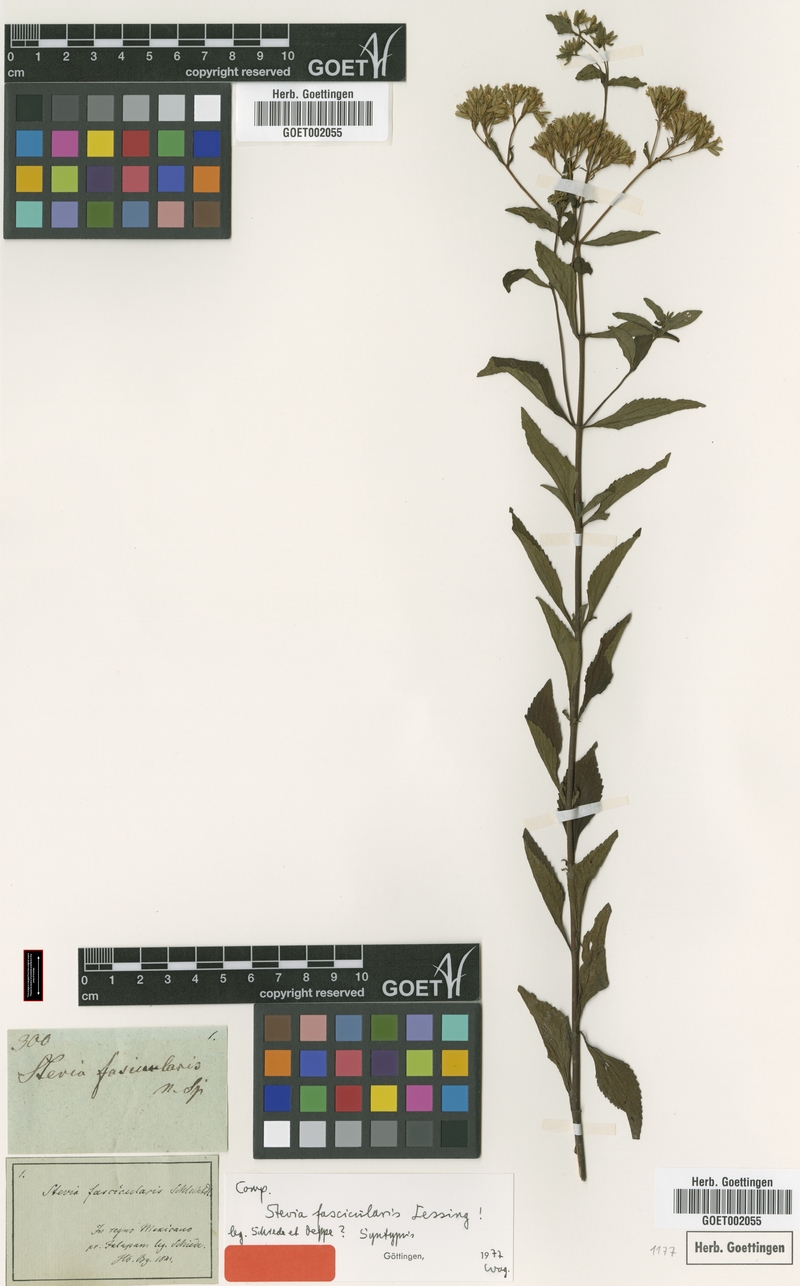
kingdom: Plantae
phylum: Tracheophyta
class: Magnoliopsida
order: Asterales
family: Asteraceae
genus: Stevia
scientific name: Stevia ovata
